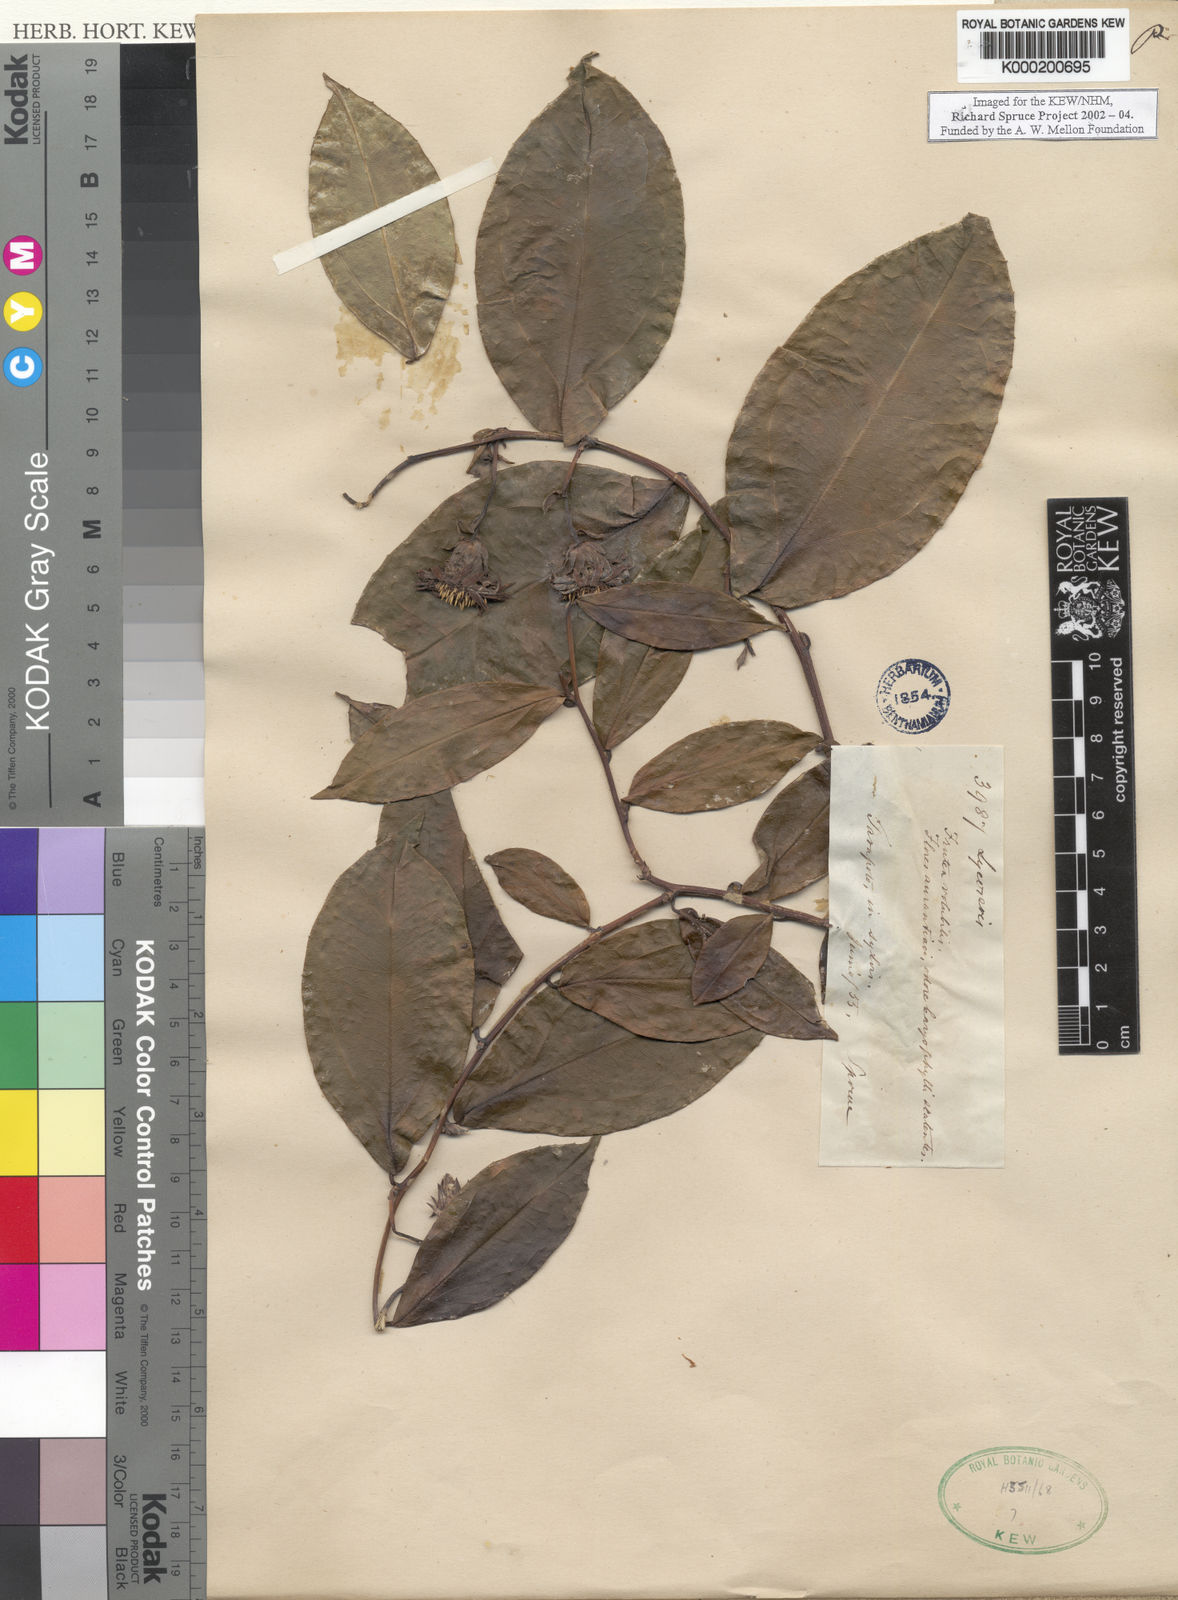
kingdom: Plantae
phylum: Tracheophyta
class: Magnoliopsida
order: Asterales
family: Asteraceae
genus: Lycoseris
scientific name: Lycoseris
